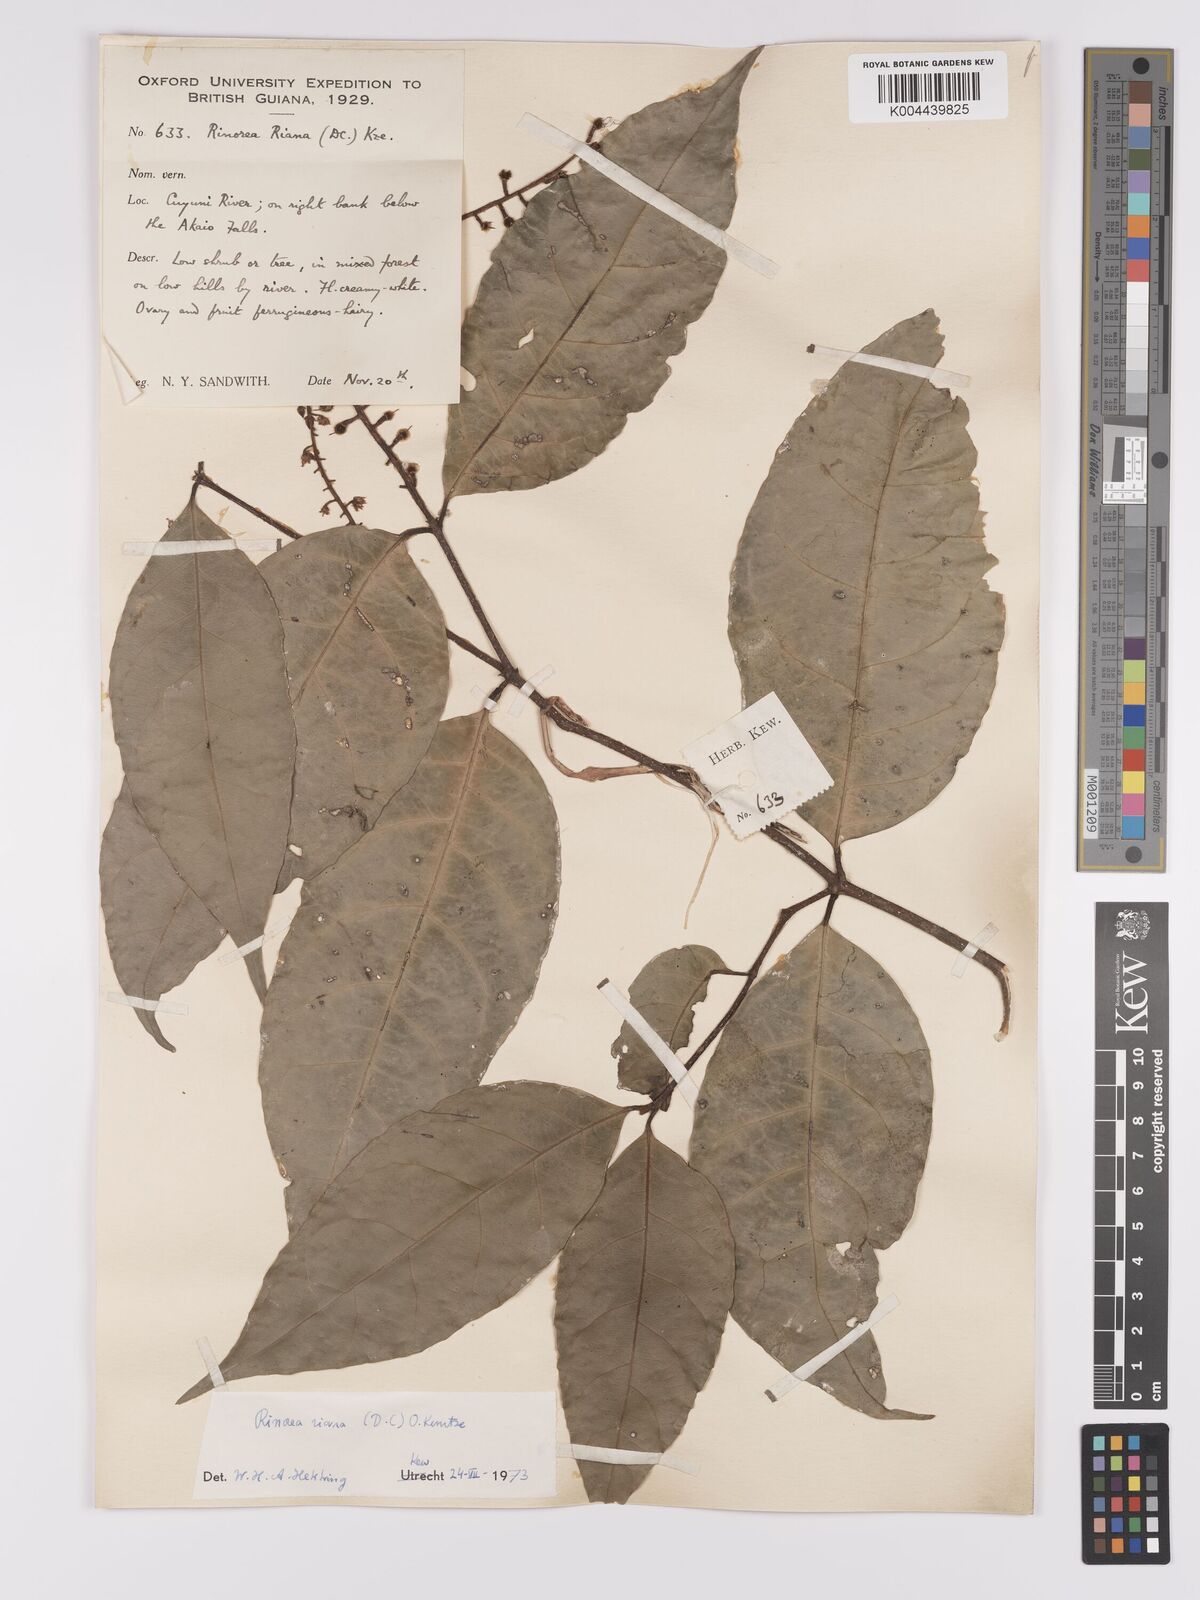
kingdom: Plantae
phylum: Tracheophyta
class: Magnoliopsida
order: Malpighiales
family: Violaceae
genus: Rinorea
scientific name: Rinorea riana
